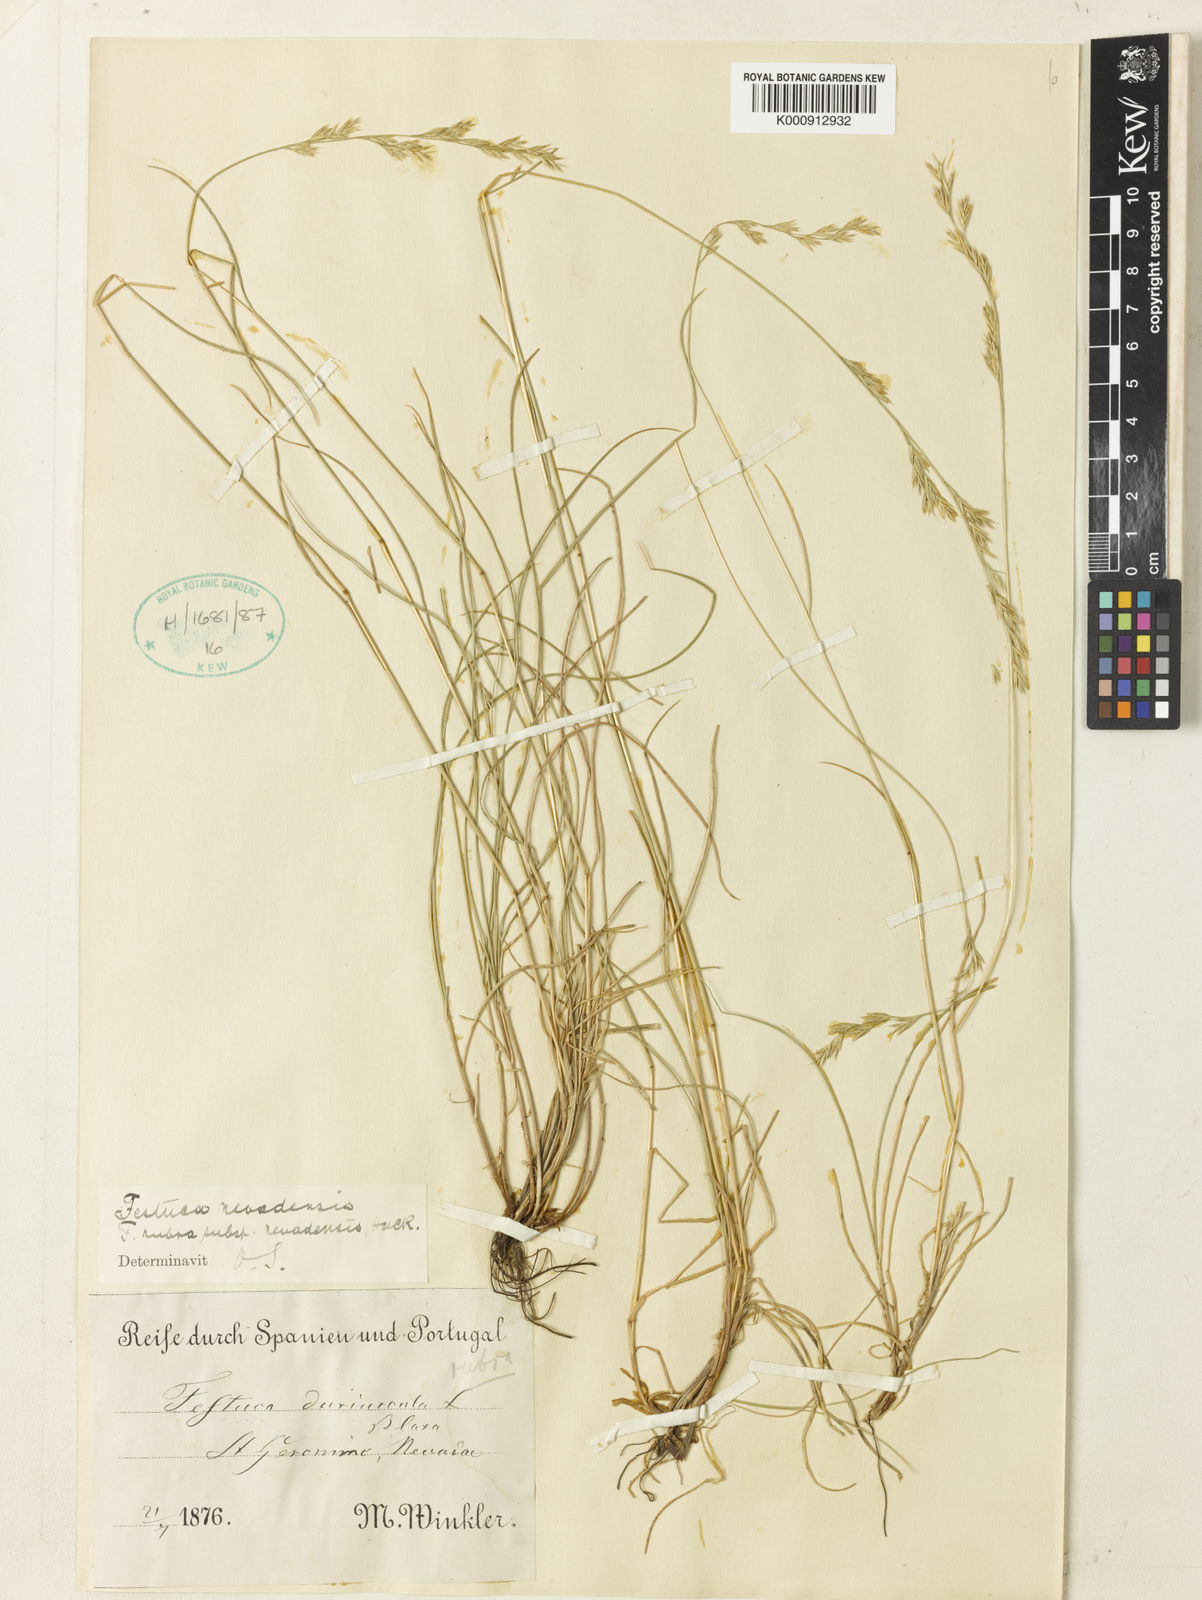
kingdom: Plantae
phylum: Tracheophyta
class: Liliopsida
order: Poales
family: Poaceae
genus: Festuca
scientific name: Festuca nevadensis
